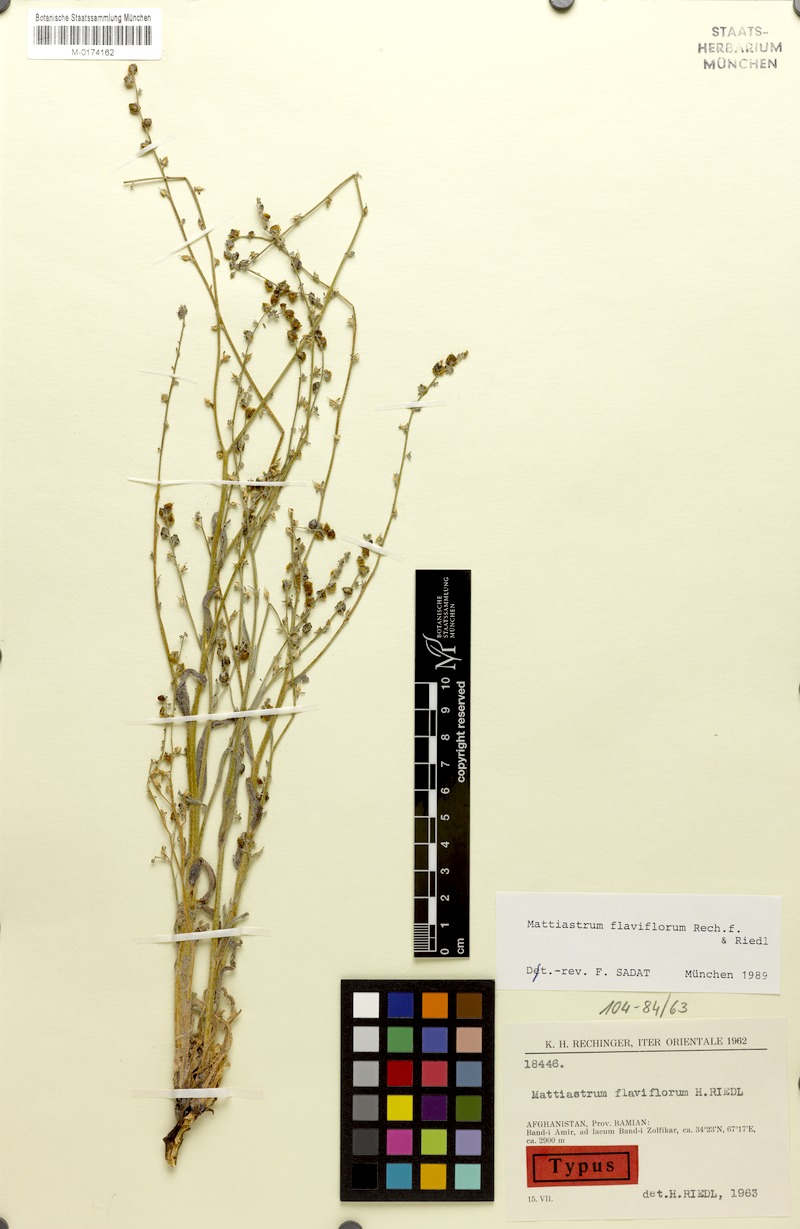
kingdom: Plantae
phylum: Tracheophyta
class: Magnoliopsida
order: Boraginales
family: Boraginaceae
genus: Paracaryum
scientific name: Paracaryum flaviflorum
